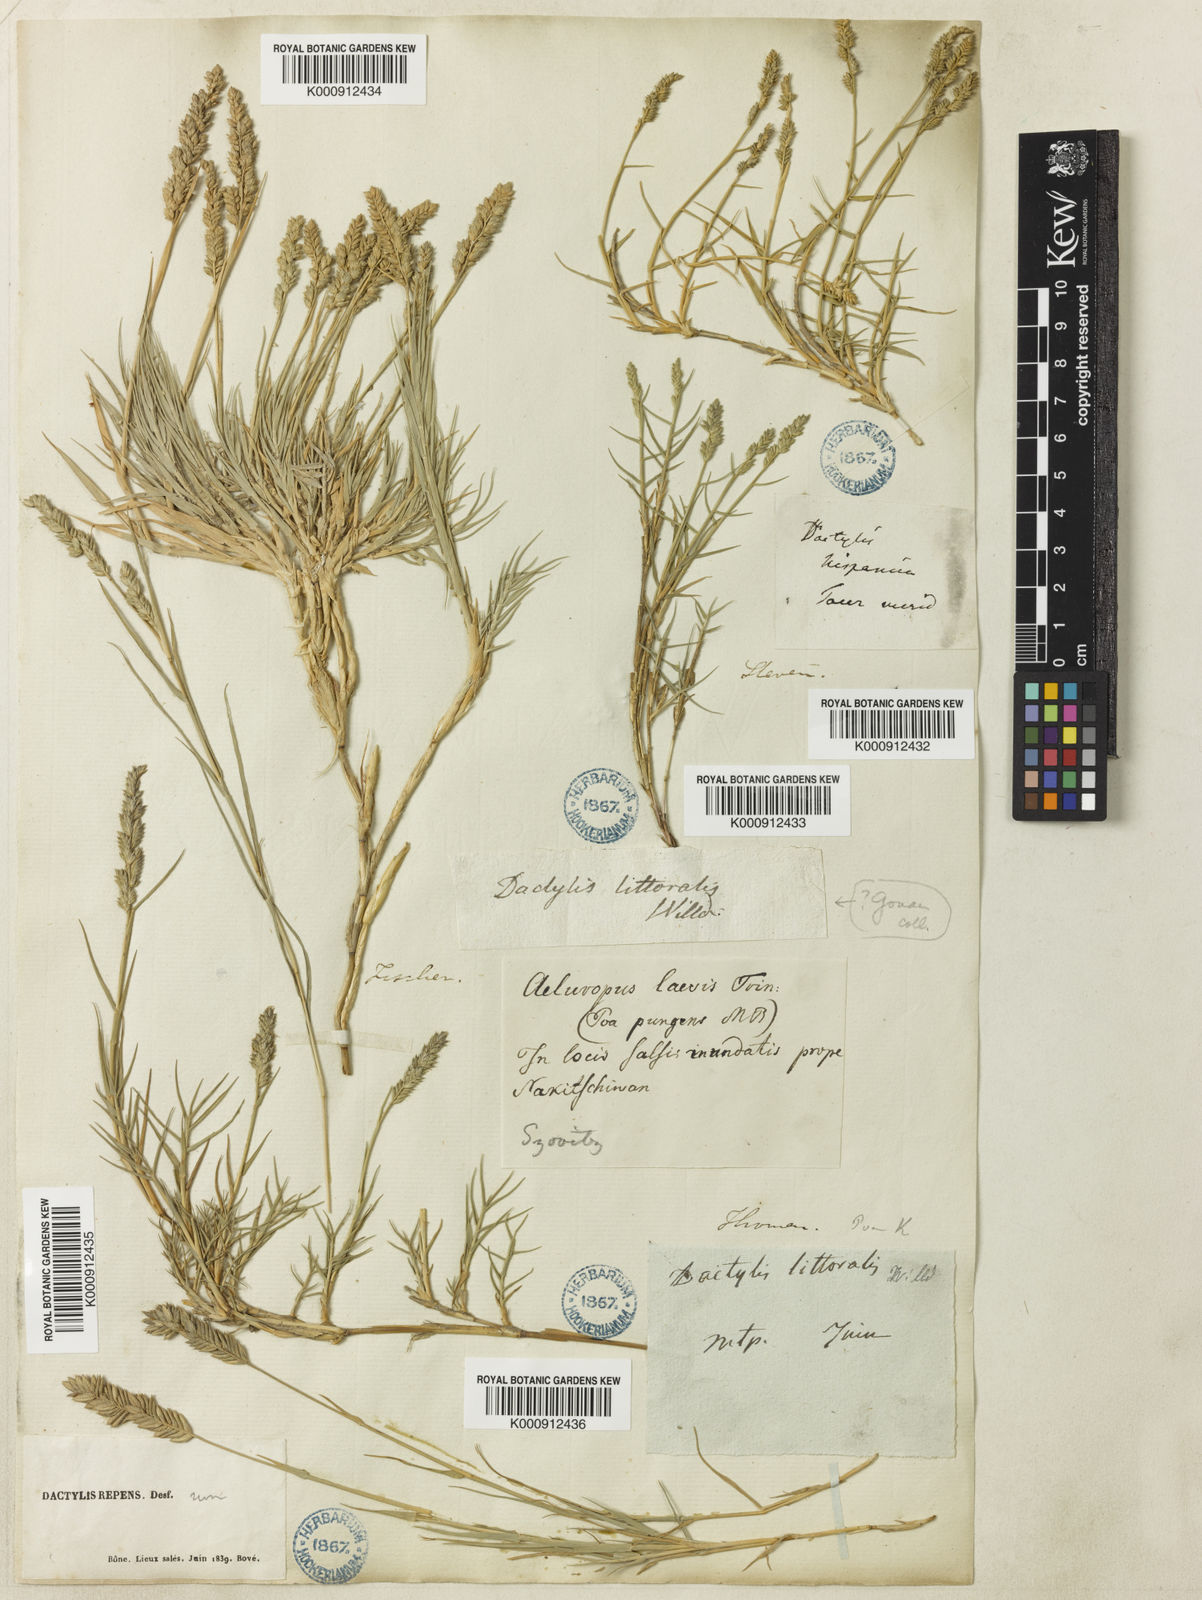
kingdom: Plantae
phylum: Tracheophyta
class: Liliopsida
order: Poales
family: Poaceae
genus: Aeluropus
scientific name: Aeluropus littoralis
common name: Indian walnut
